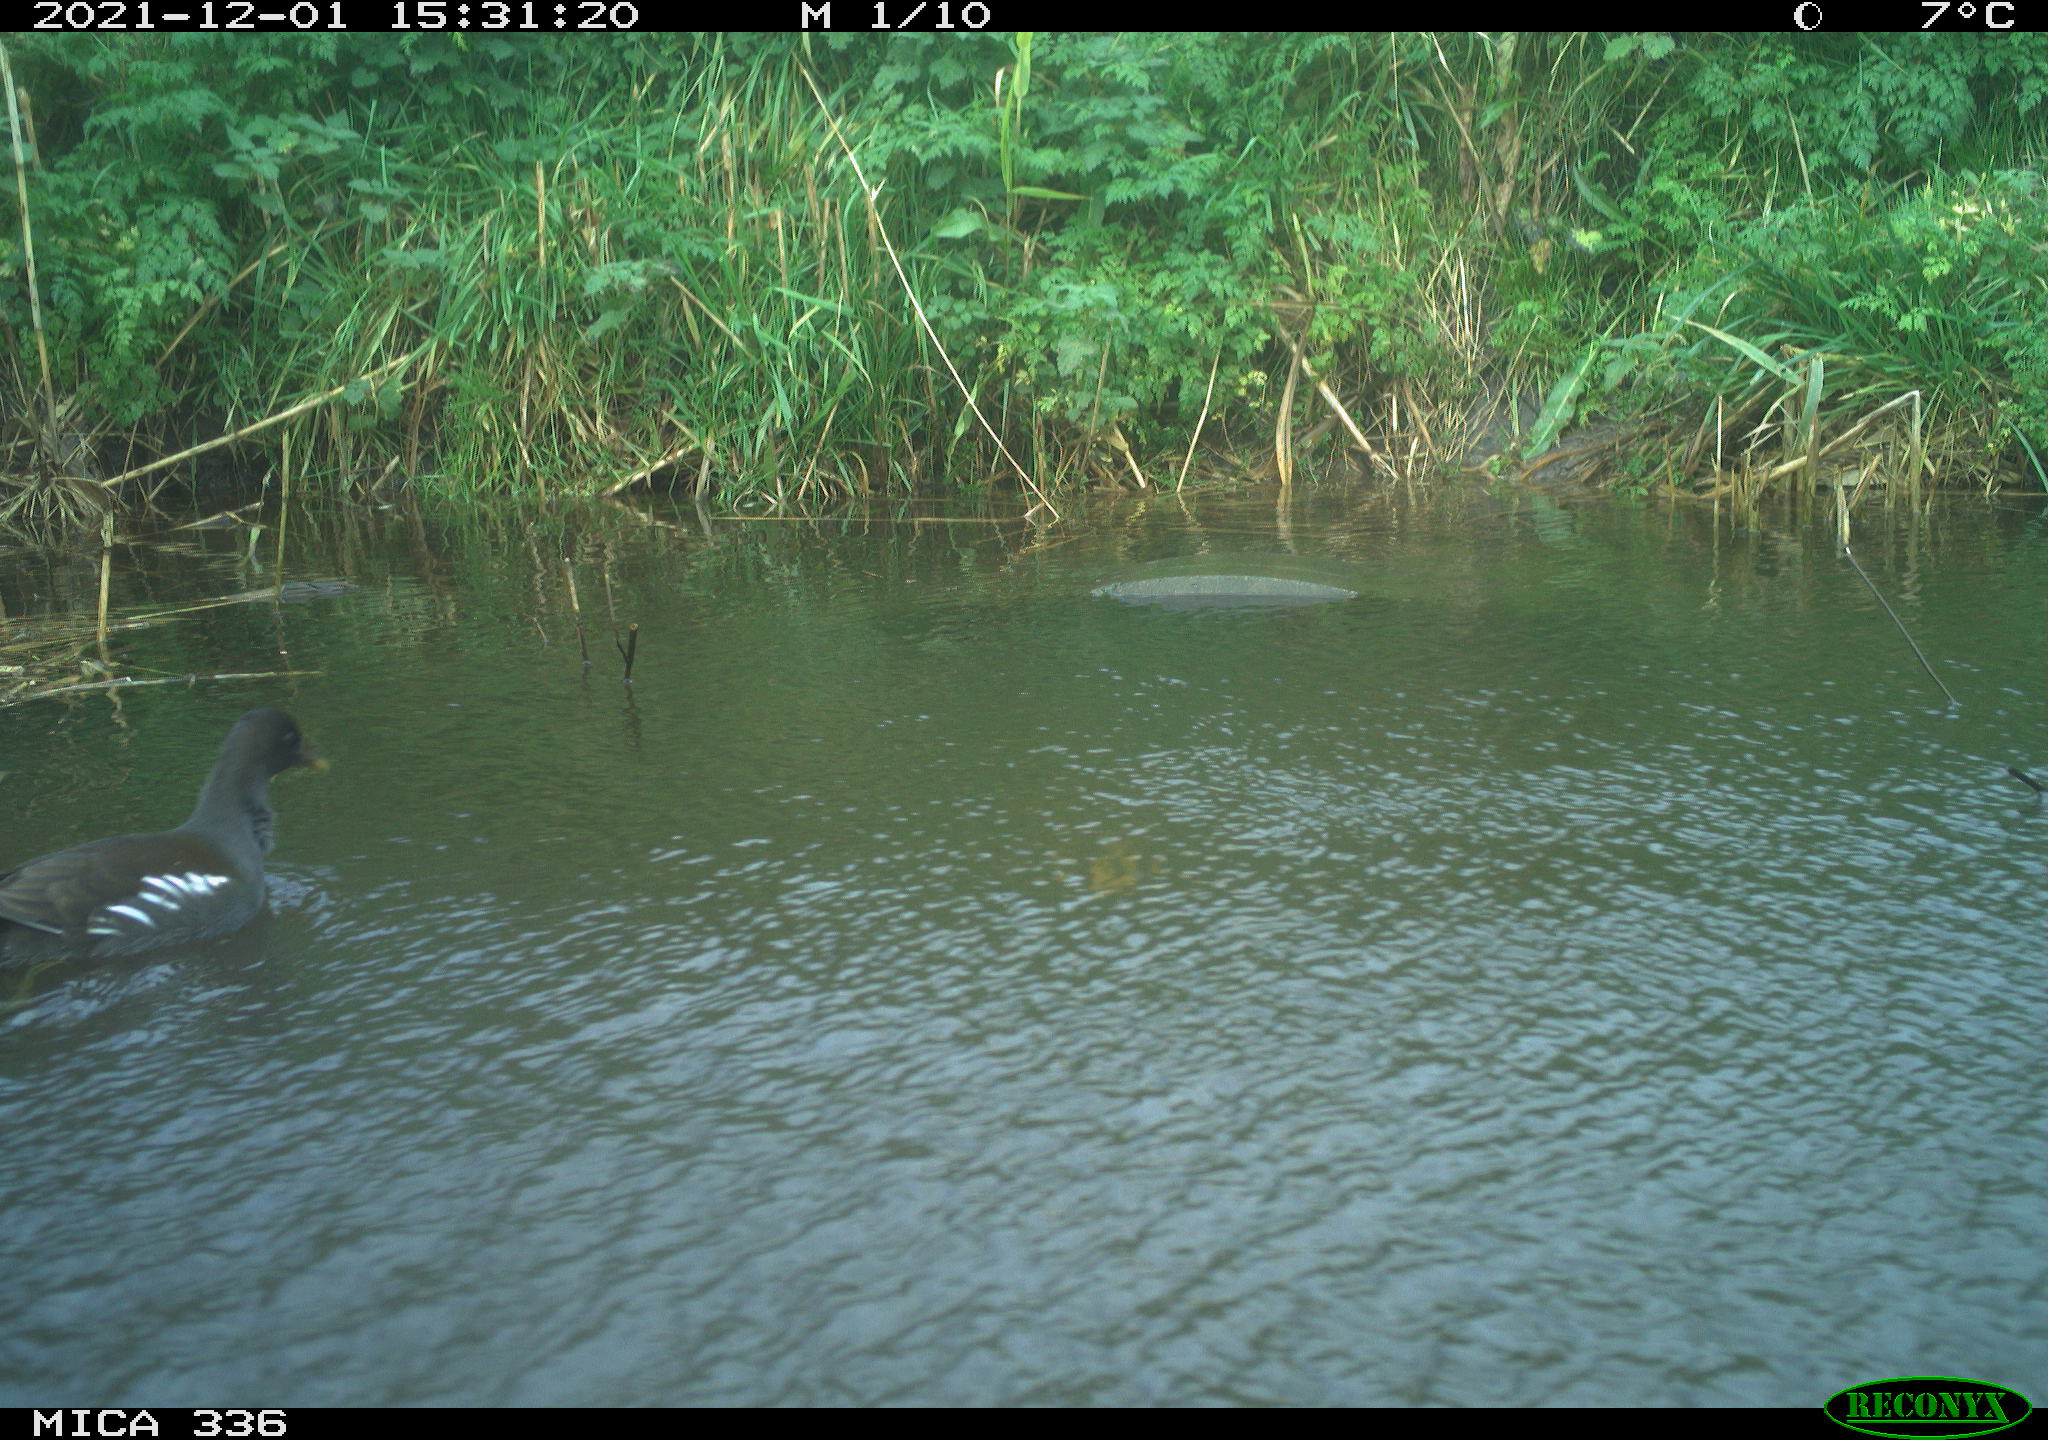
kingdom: Animalia
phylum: Chordata
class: Aves
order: Gruiformes
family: Rallidae
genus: Gallinula
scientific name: Gallinula chloropus
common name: Common moorhen
